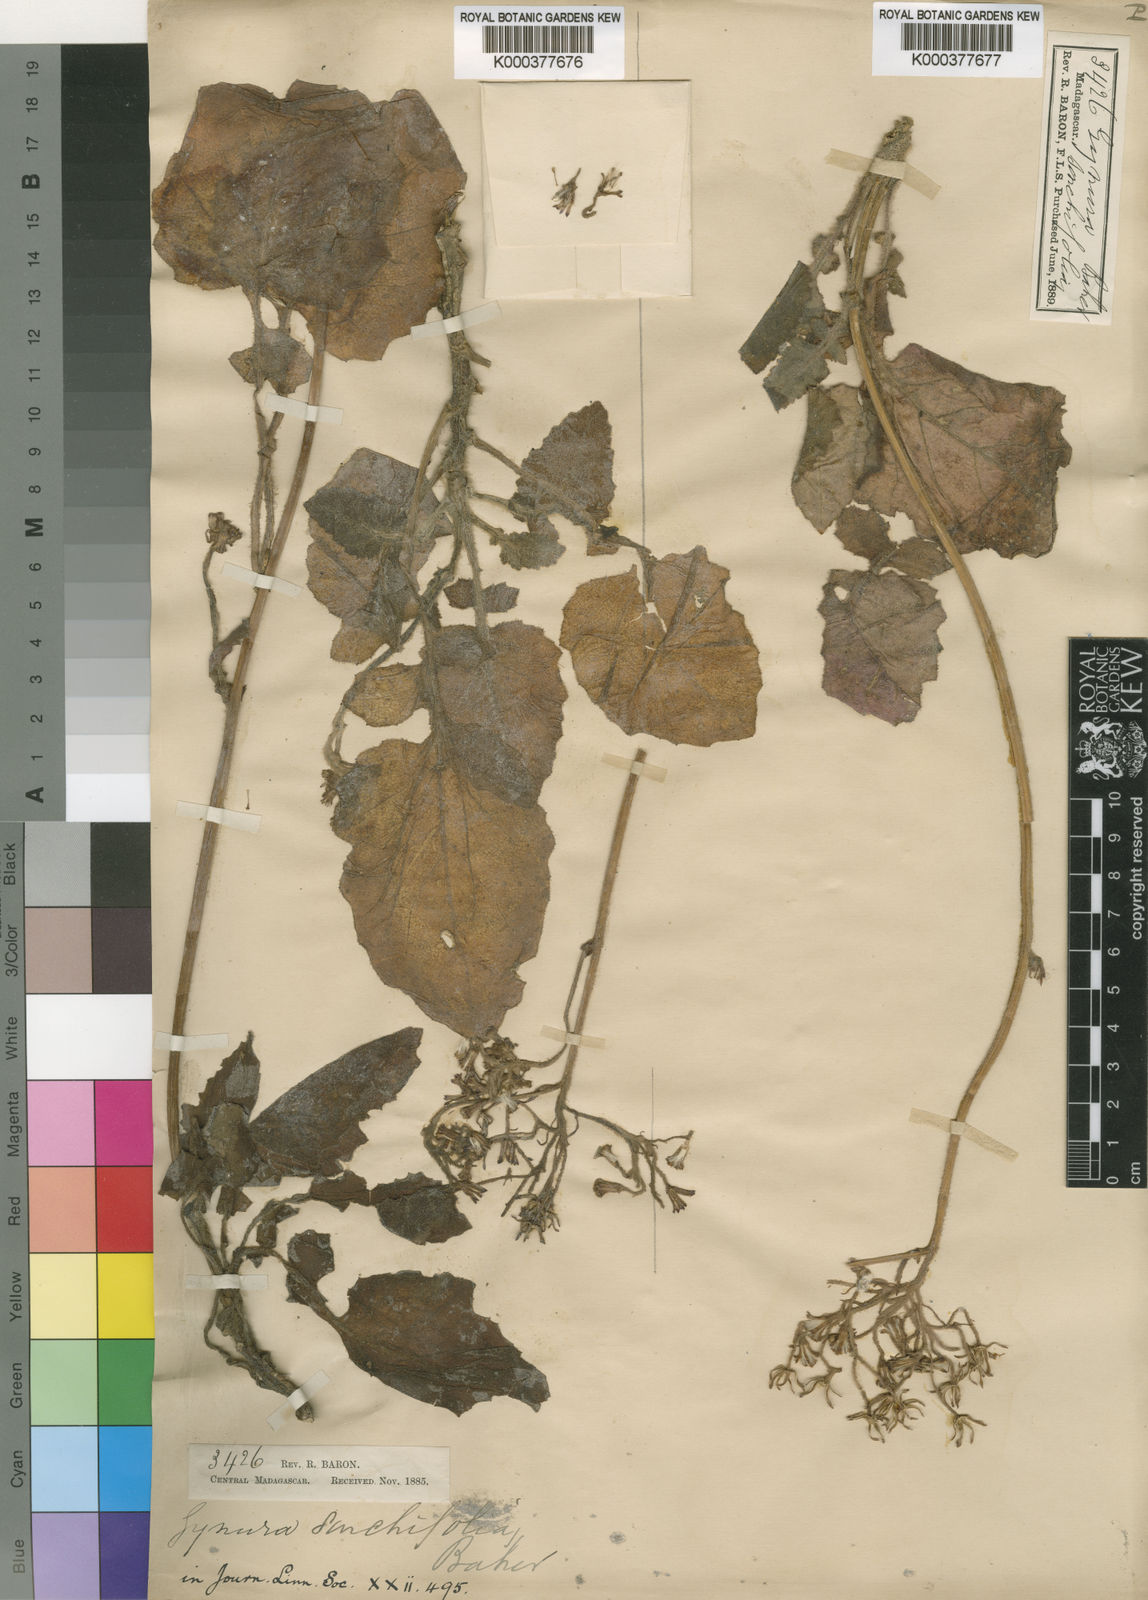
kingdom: Plantae
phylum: Tracheophyta
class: Magnoliopsida
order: Asterales
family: Asteraceae
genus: Crassocephalum
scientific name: Crassocephalum sonchifolium
